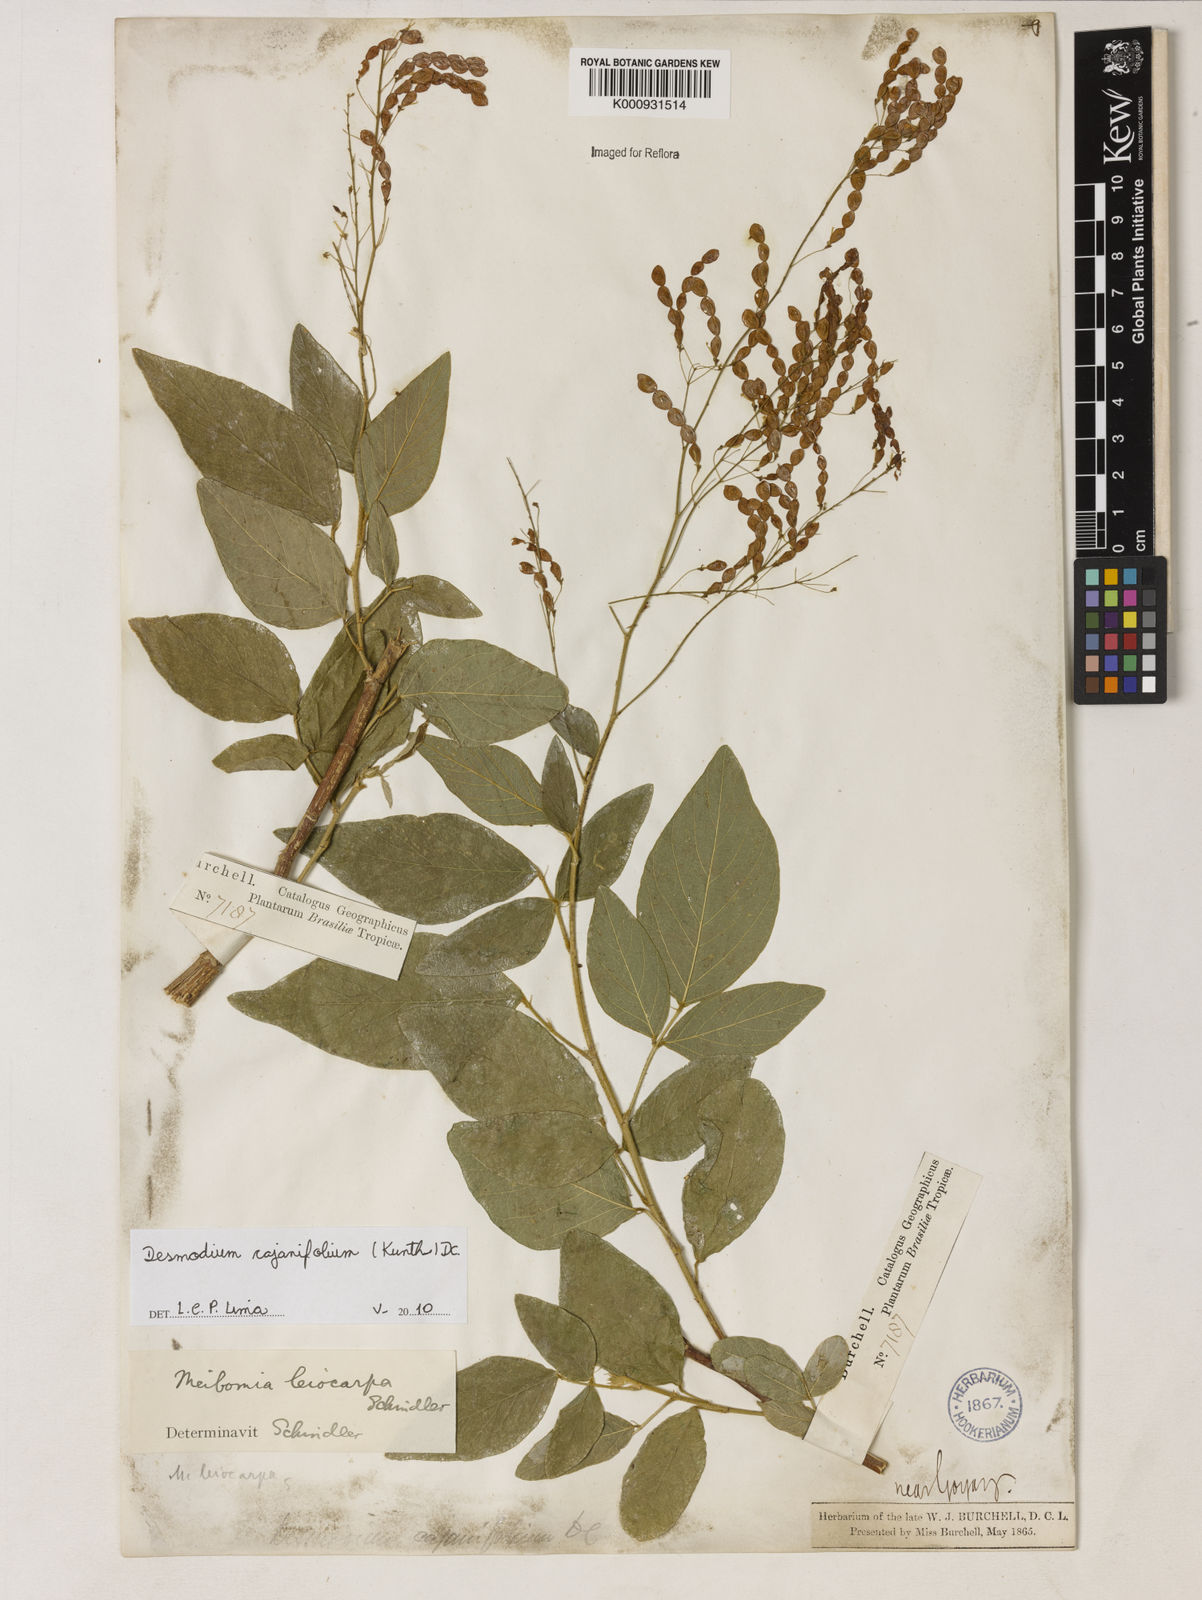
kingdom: Plantae
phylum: Tracheophyta
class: Magnoliopsida
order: Fabales
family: Fabaceae
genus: Desmodium
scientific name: Desmodium cajanifolium
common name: Tropical ticktrefoil
